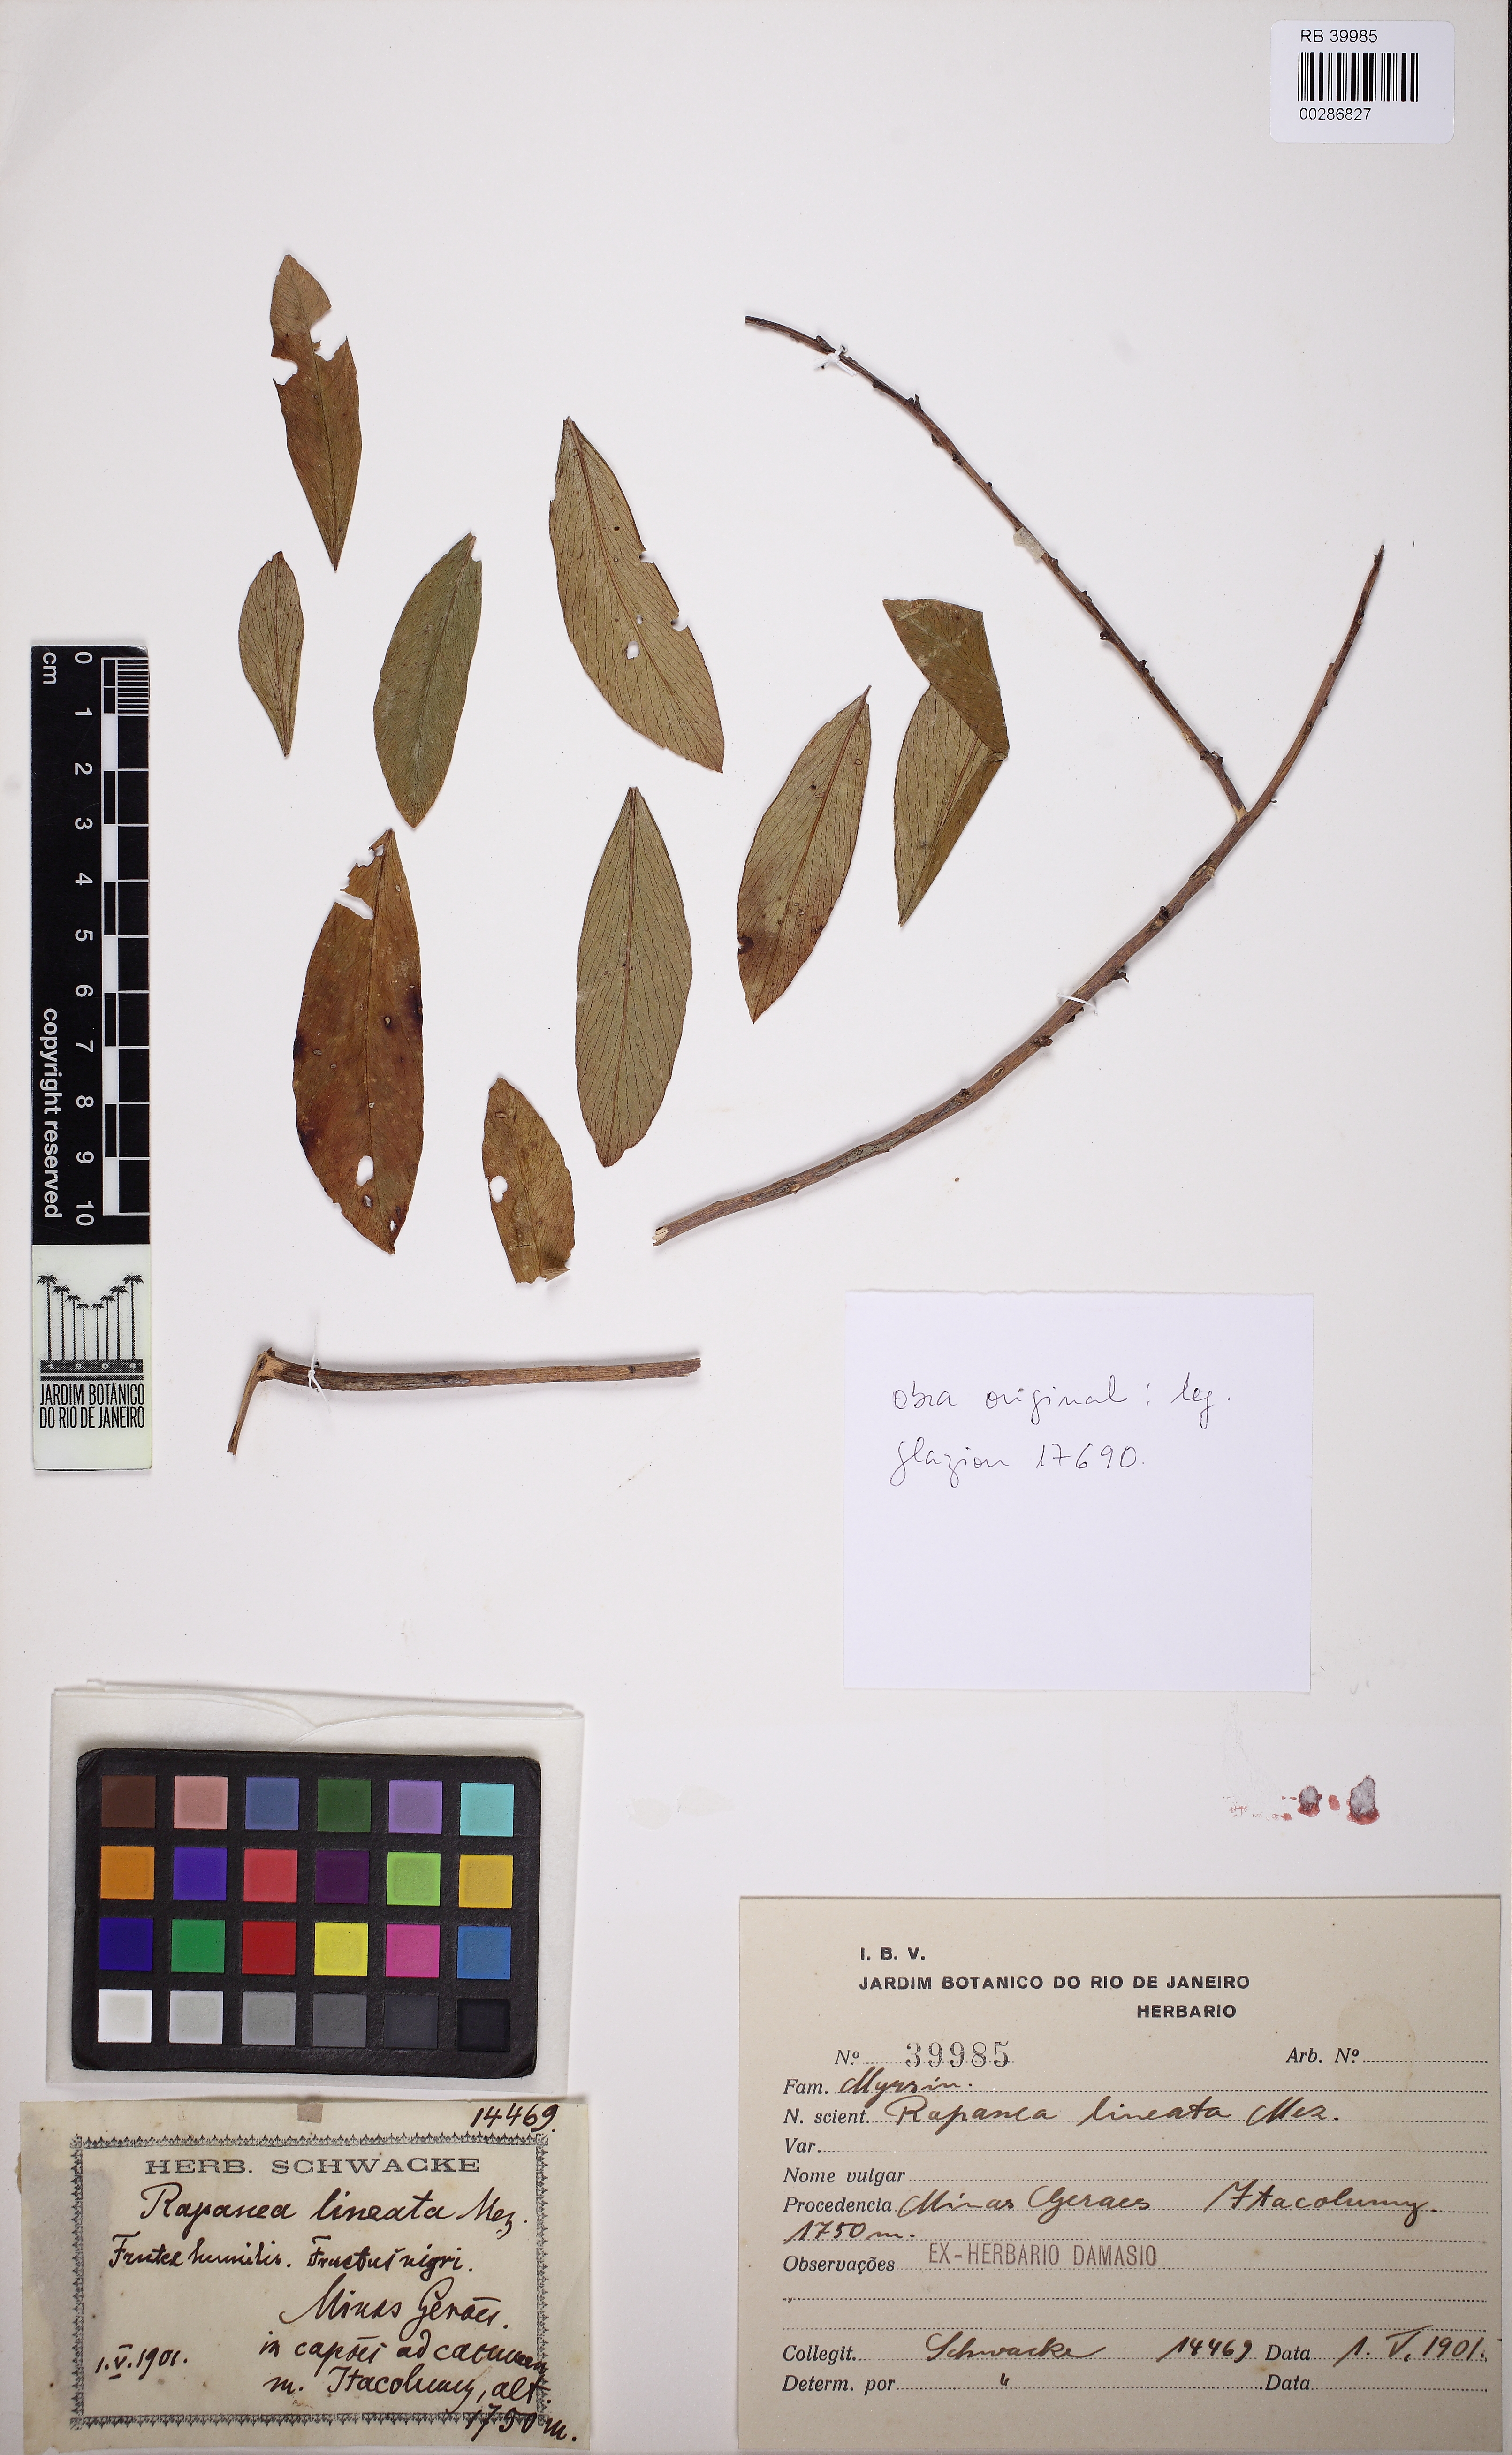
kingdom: Plantae
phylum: Tracheophyta
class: Magnoliopsida
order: Ericales
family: Primulaceae
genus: Myrsine
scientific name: Myrsine lineata
